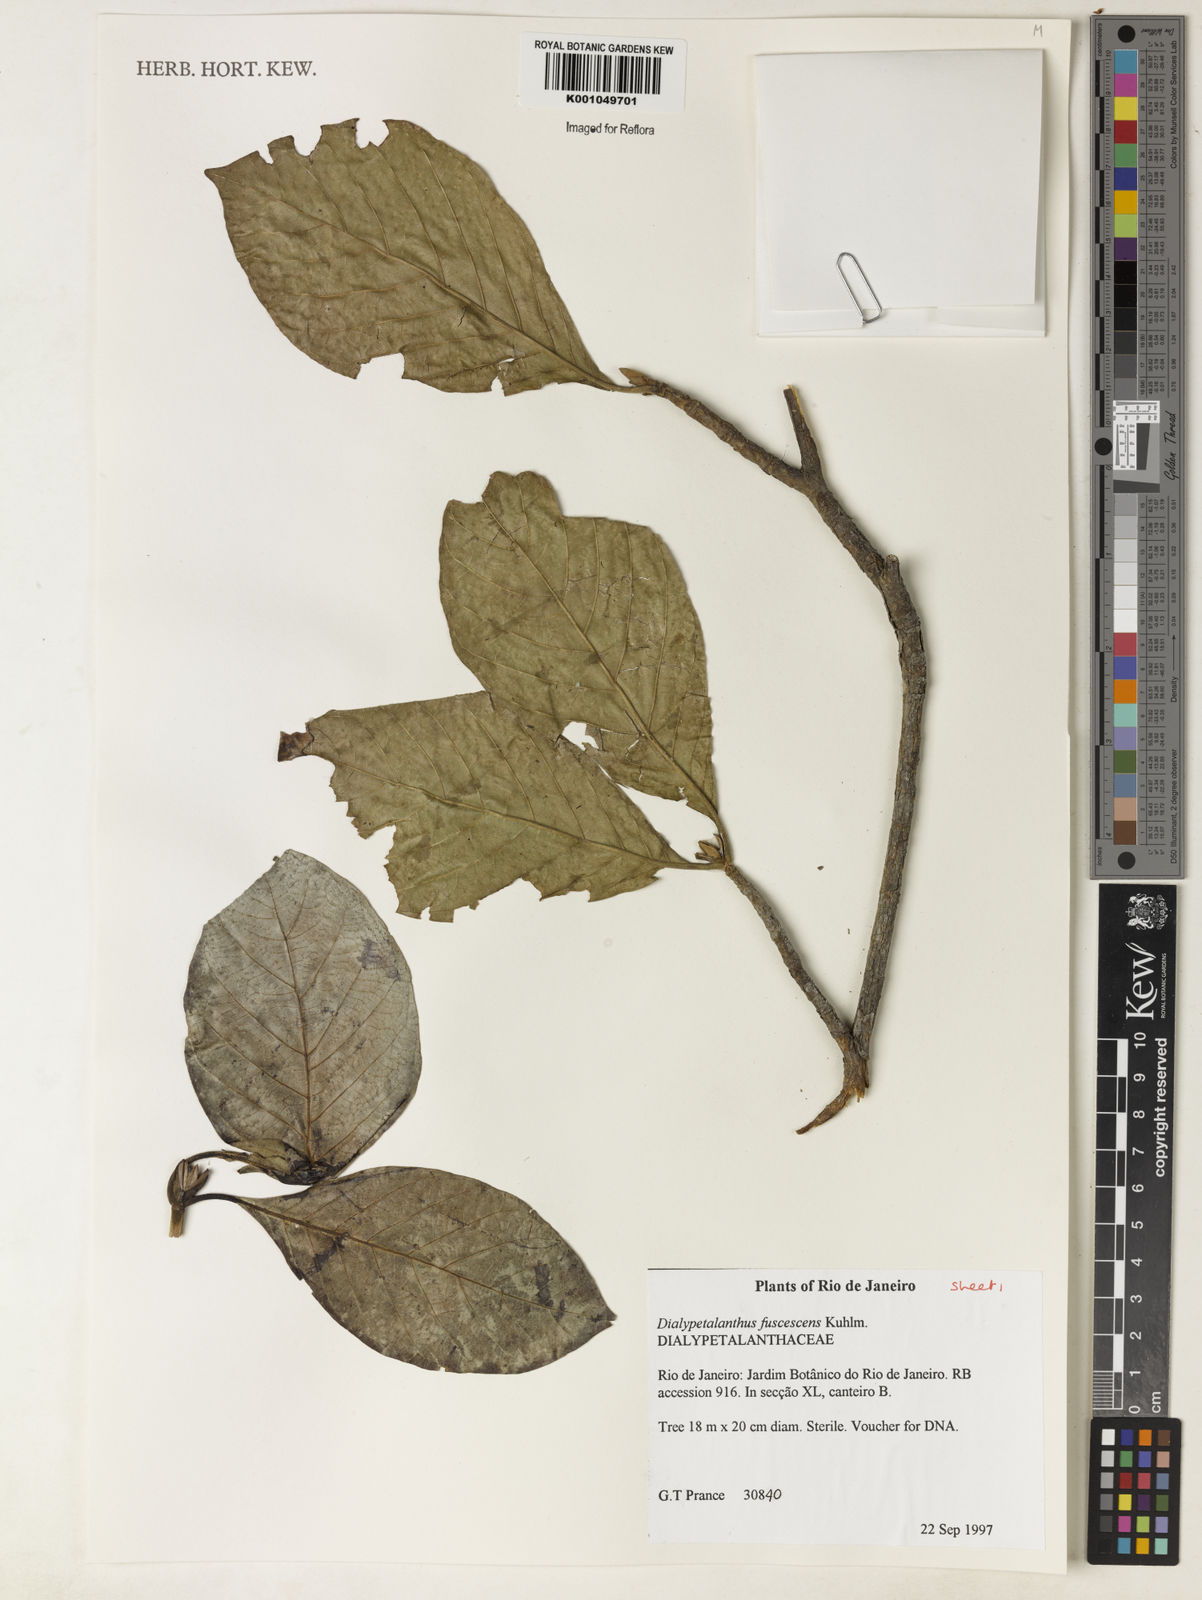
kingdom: Plantae
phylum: Tracheophyta
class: Magnoliopsida
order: Gentianales
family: Rubiaceae
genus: Dialypetalanthus
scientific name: Dialypetalanthus fuscescens
